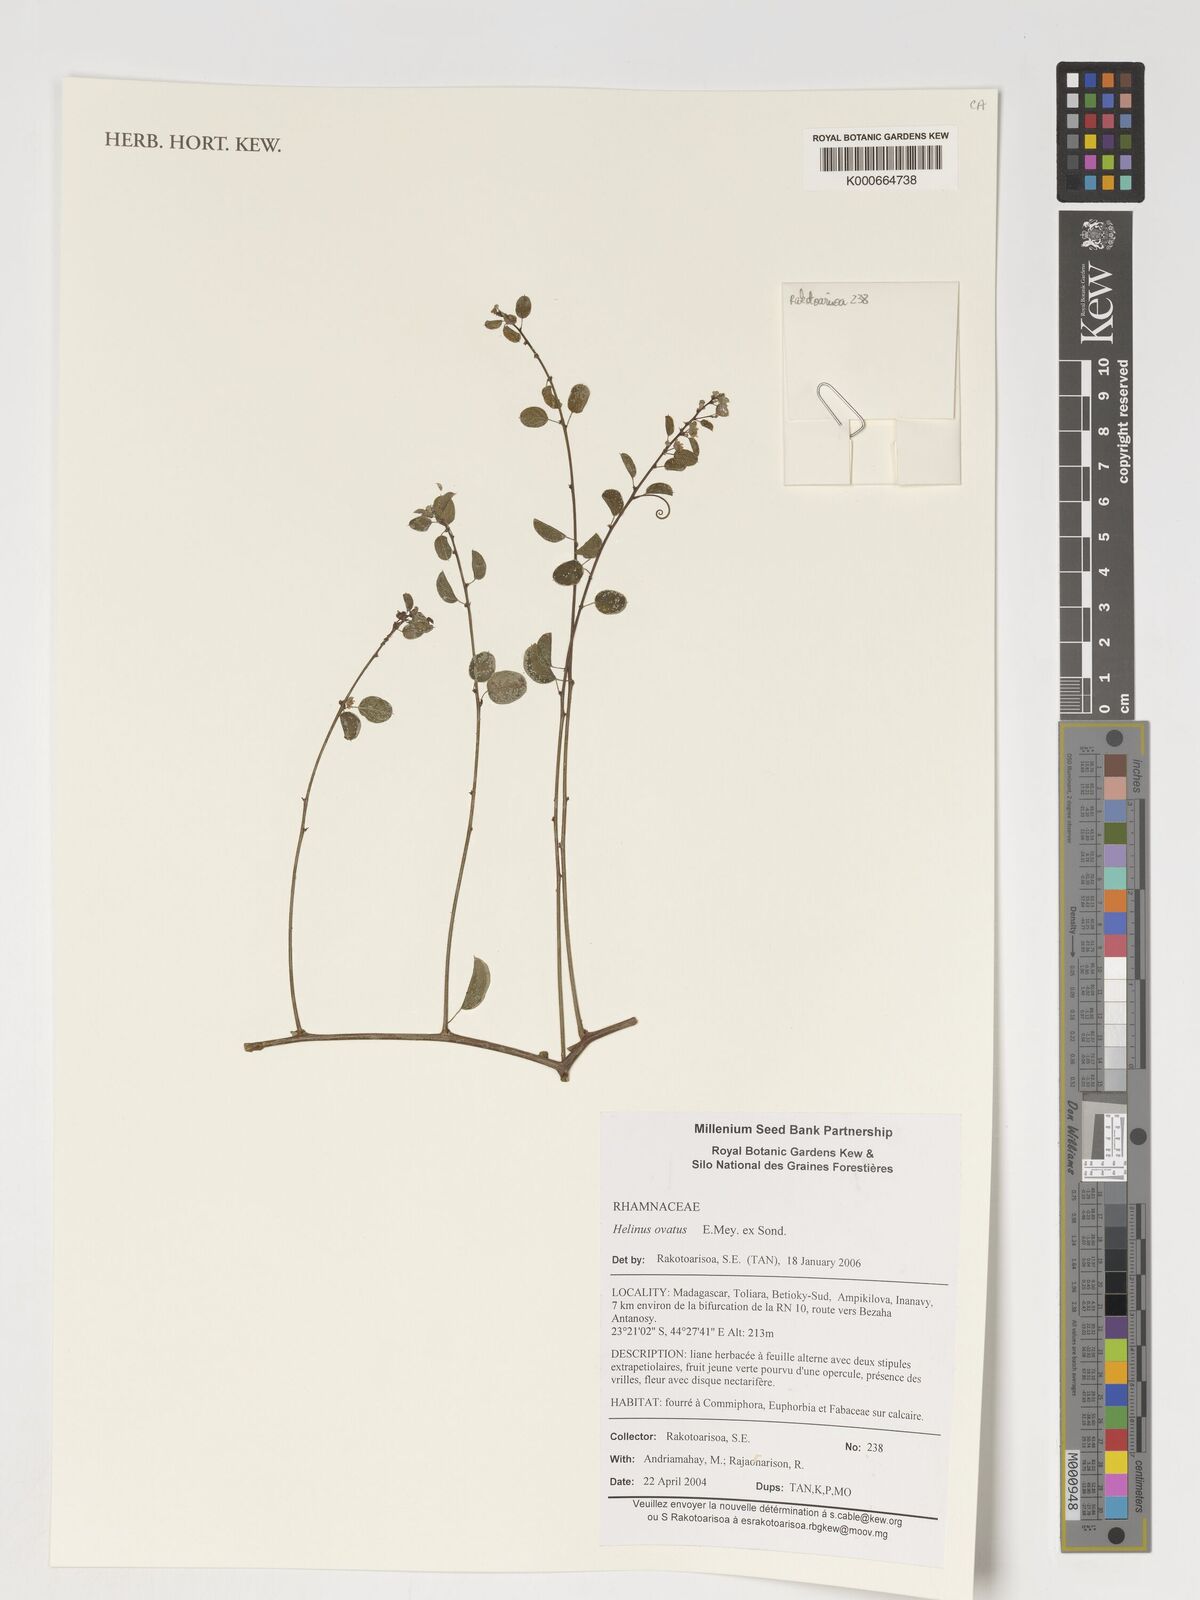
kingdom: Plantae
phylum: Tracheophyta
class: Magnoliopsida
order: Rosales
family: Rhamnaceae
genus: Helinus
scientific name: Helinus
